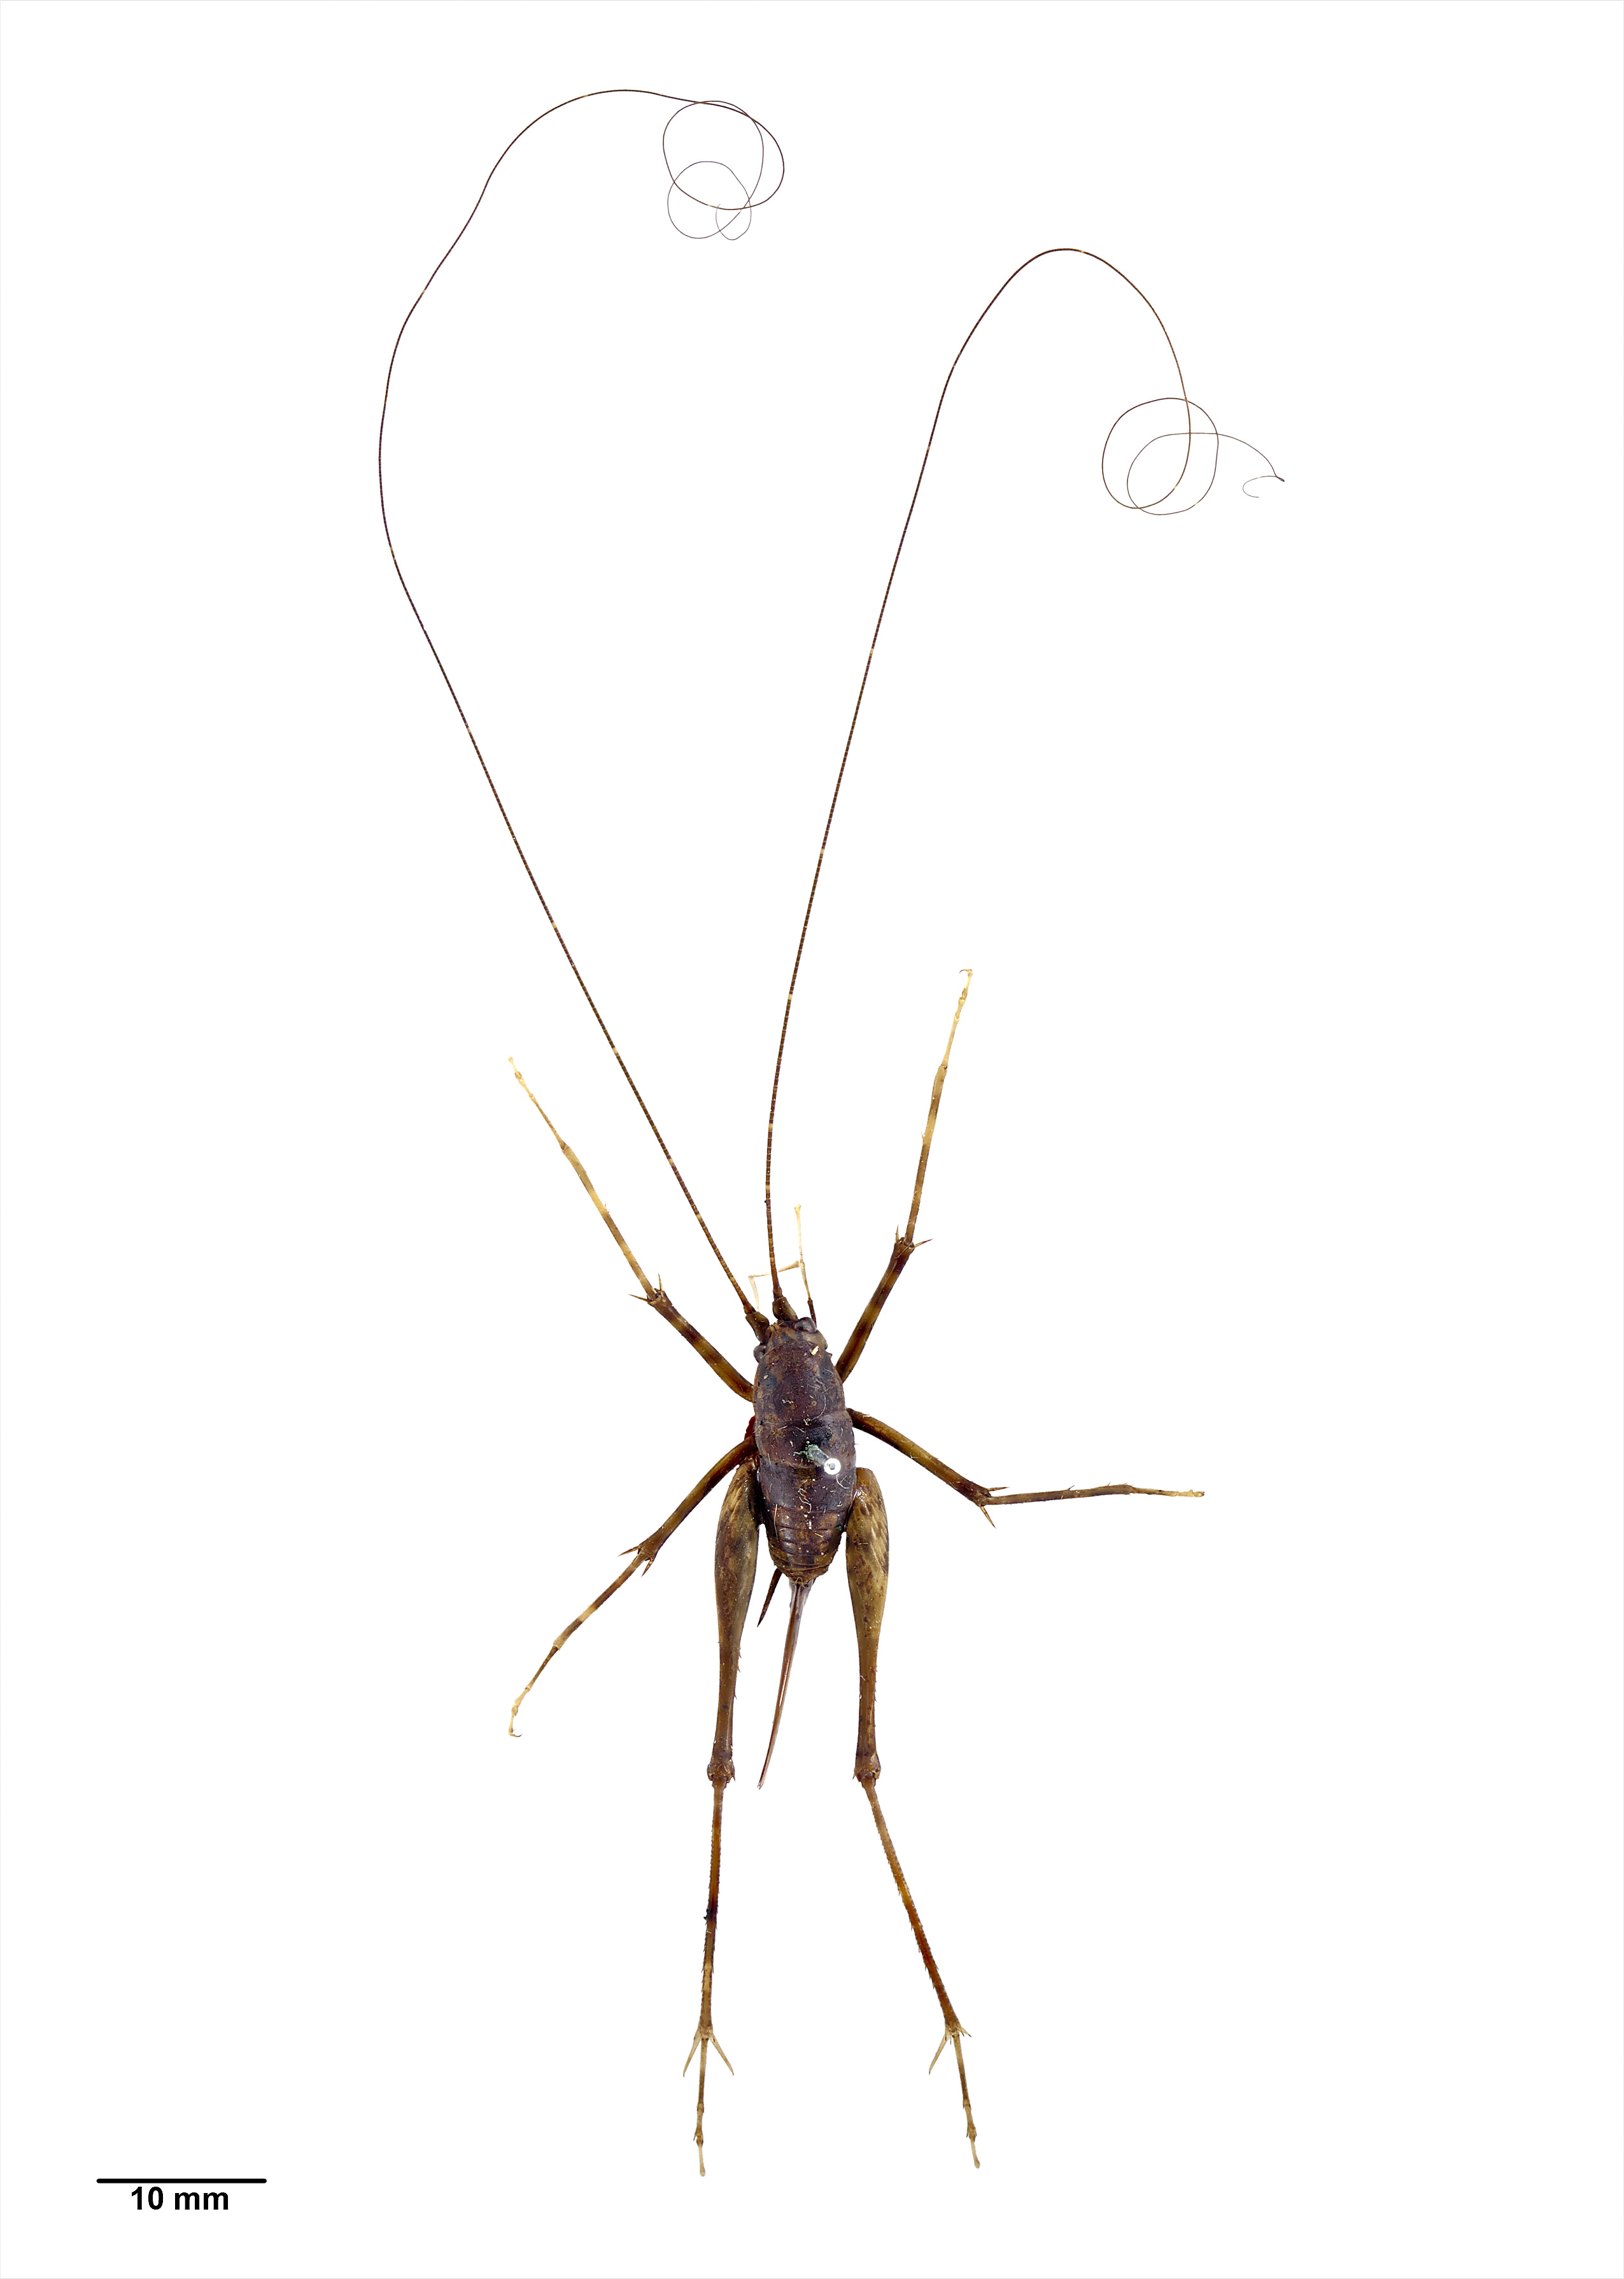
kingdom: Animalia
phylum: Arthropoda
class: Insecta
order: Orthoptera
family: Rhaphidophoridae
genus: Paraneonetus
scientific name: Paraneonetus multispinus
